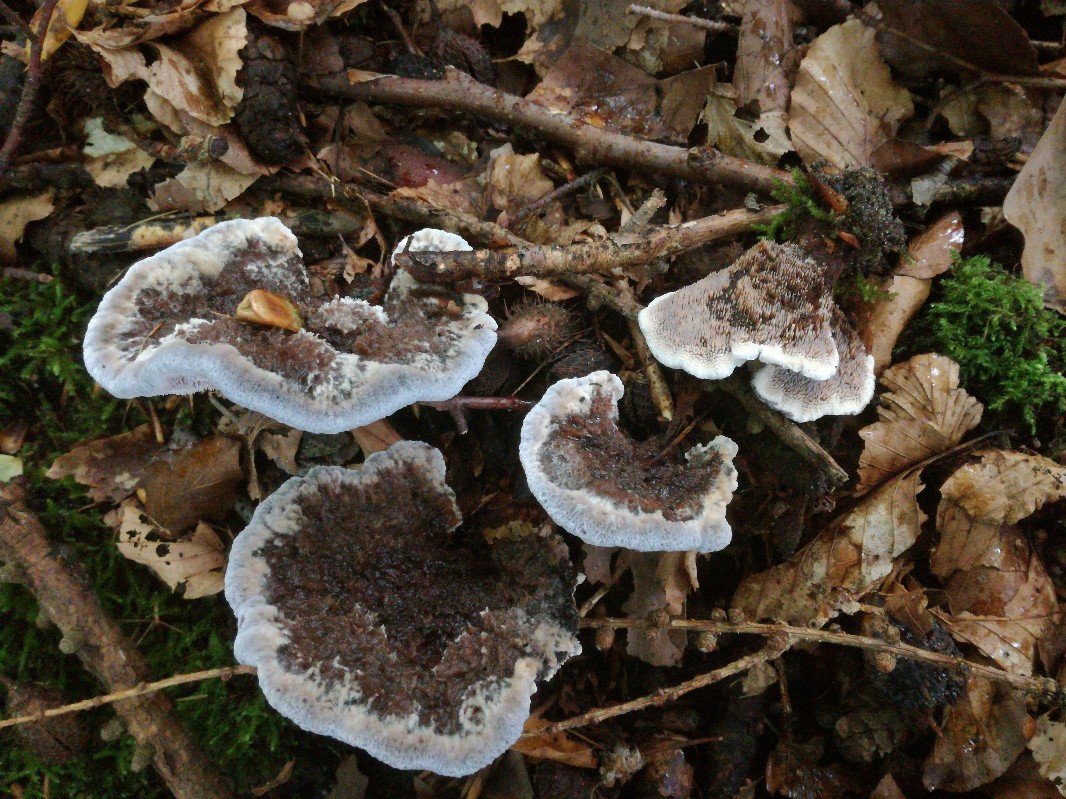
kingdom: Fungi
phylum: Basidiomycota
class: Agaricomycetes
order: Thelephorales
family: Bankeraceae
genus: Hydnellum
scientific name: Hydnellum caeruleum
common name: blålig korkpigsvamp
